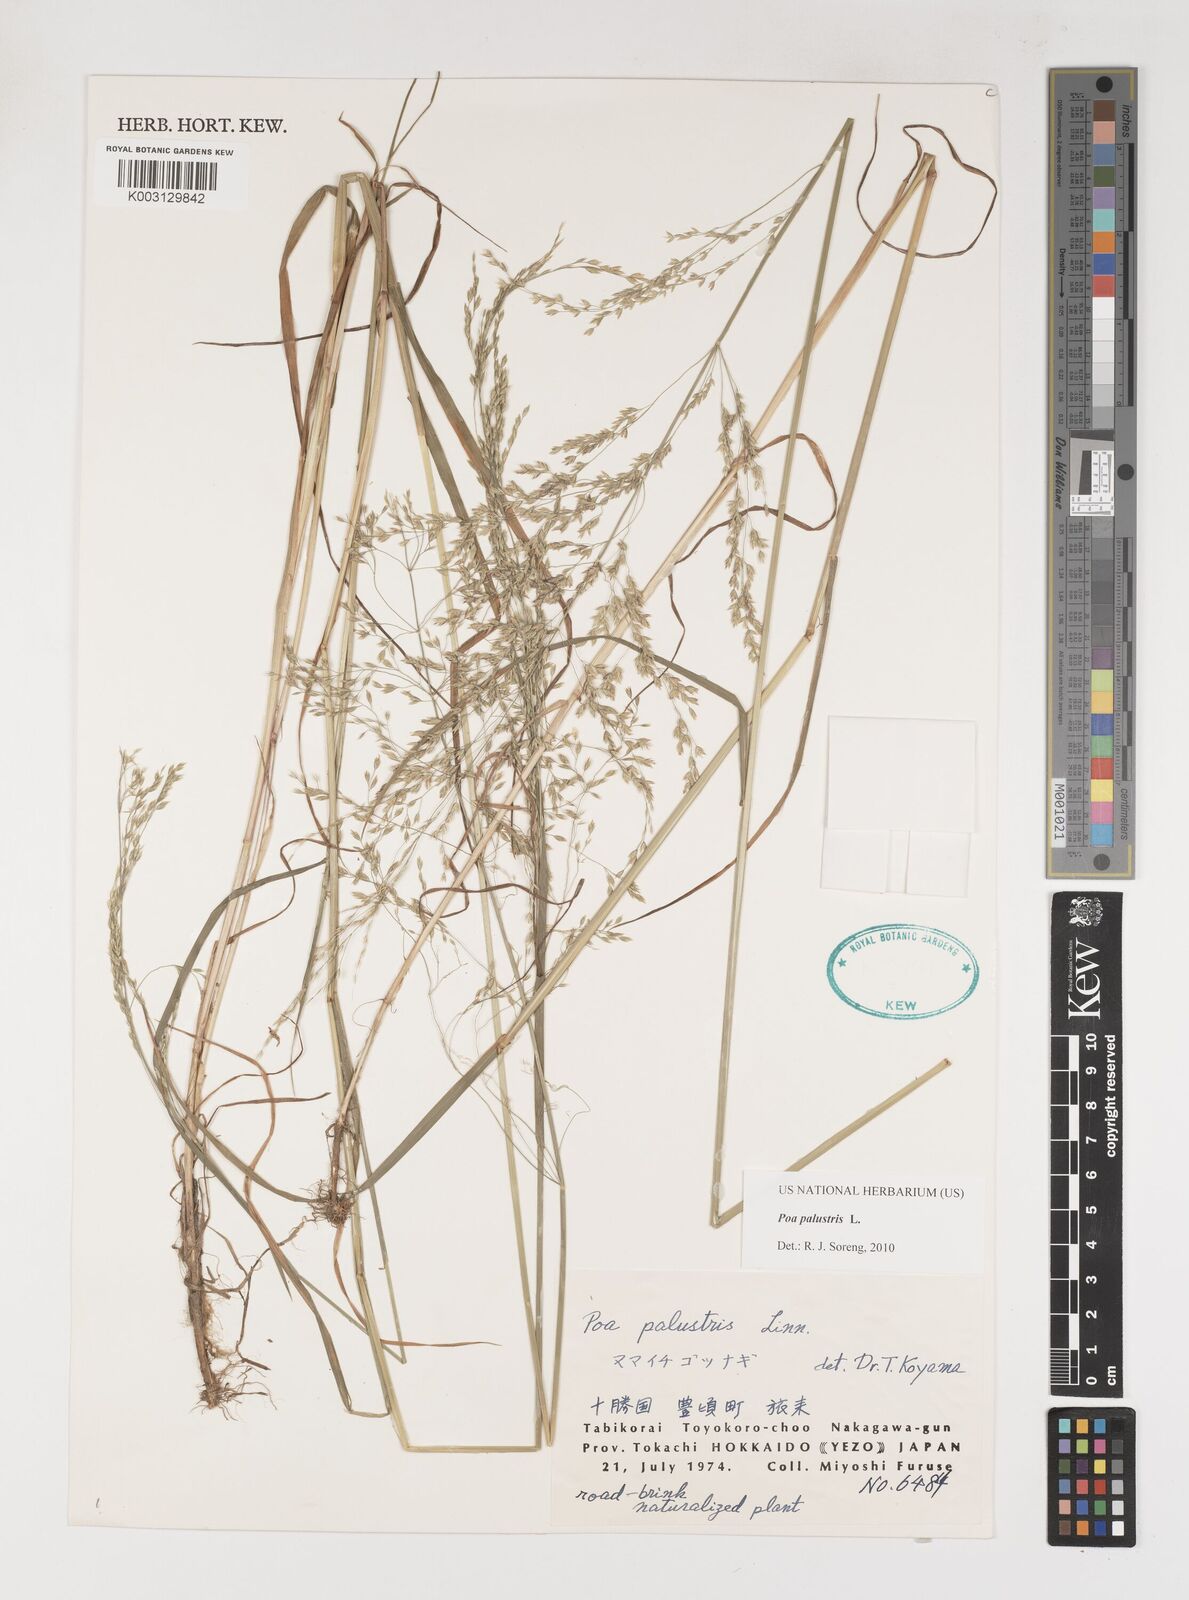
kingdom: Plantae
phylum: Tracheophyta
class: Liliopsida
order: Poales
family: Poaceae
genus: Poa
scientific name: Poa palustris
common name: Swamp meadow-grass
